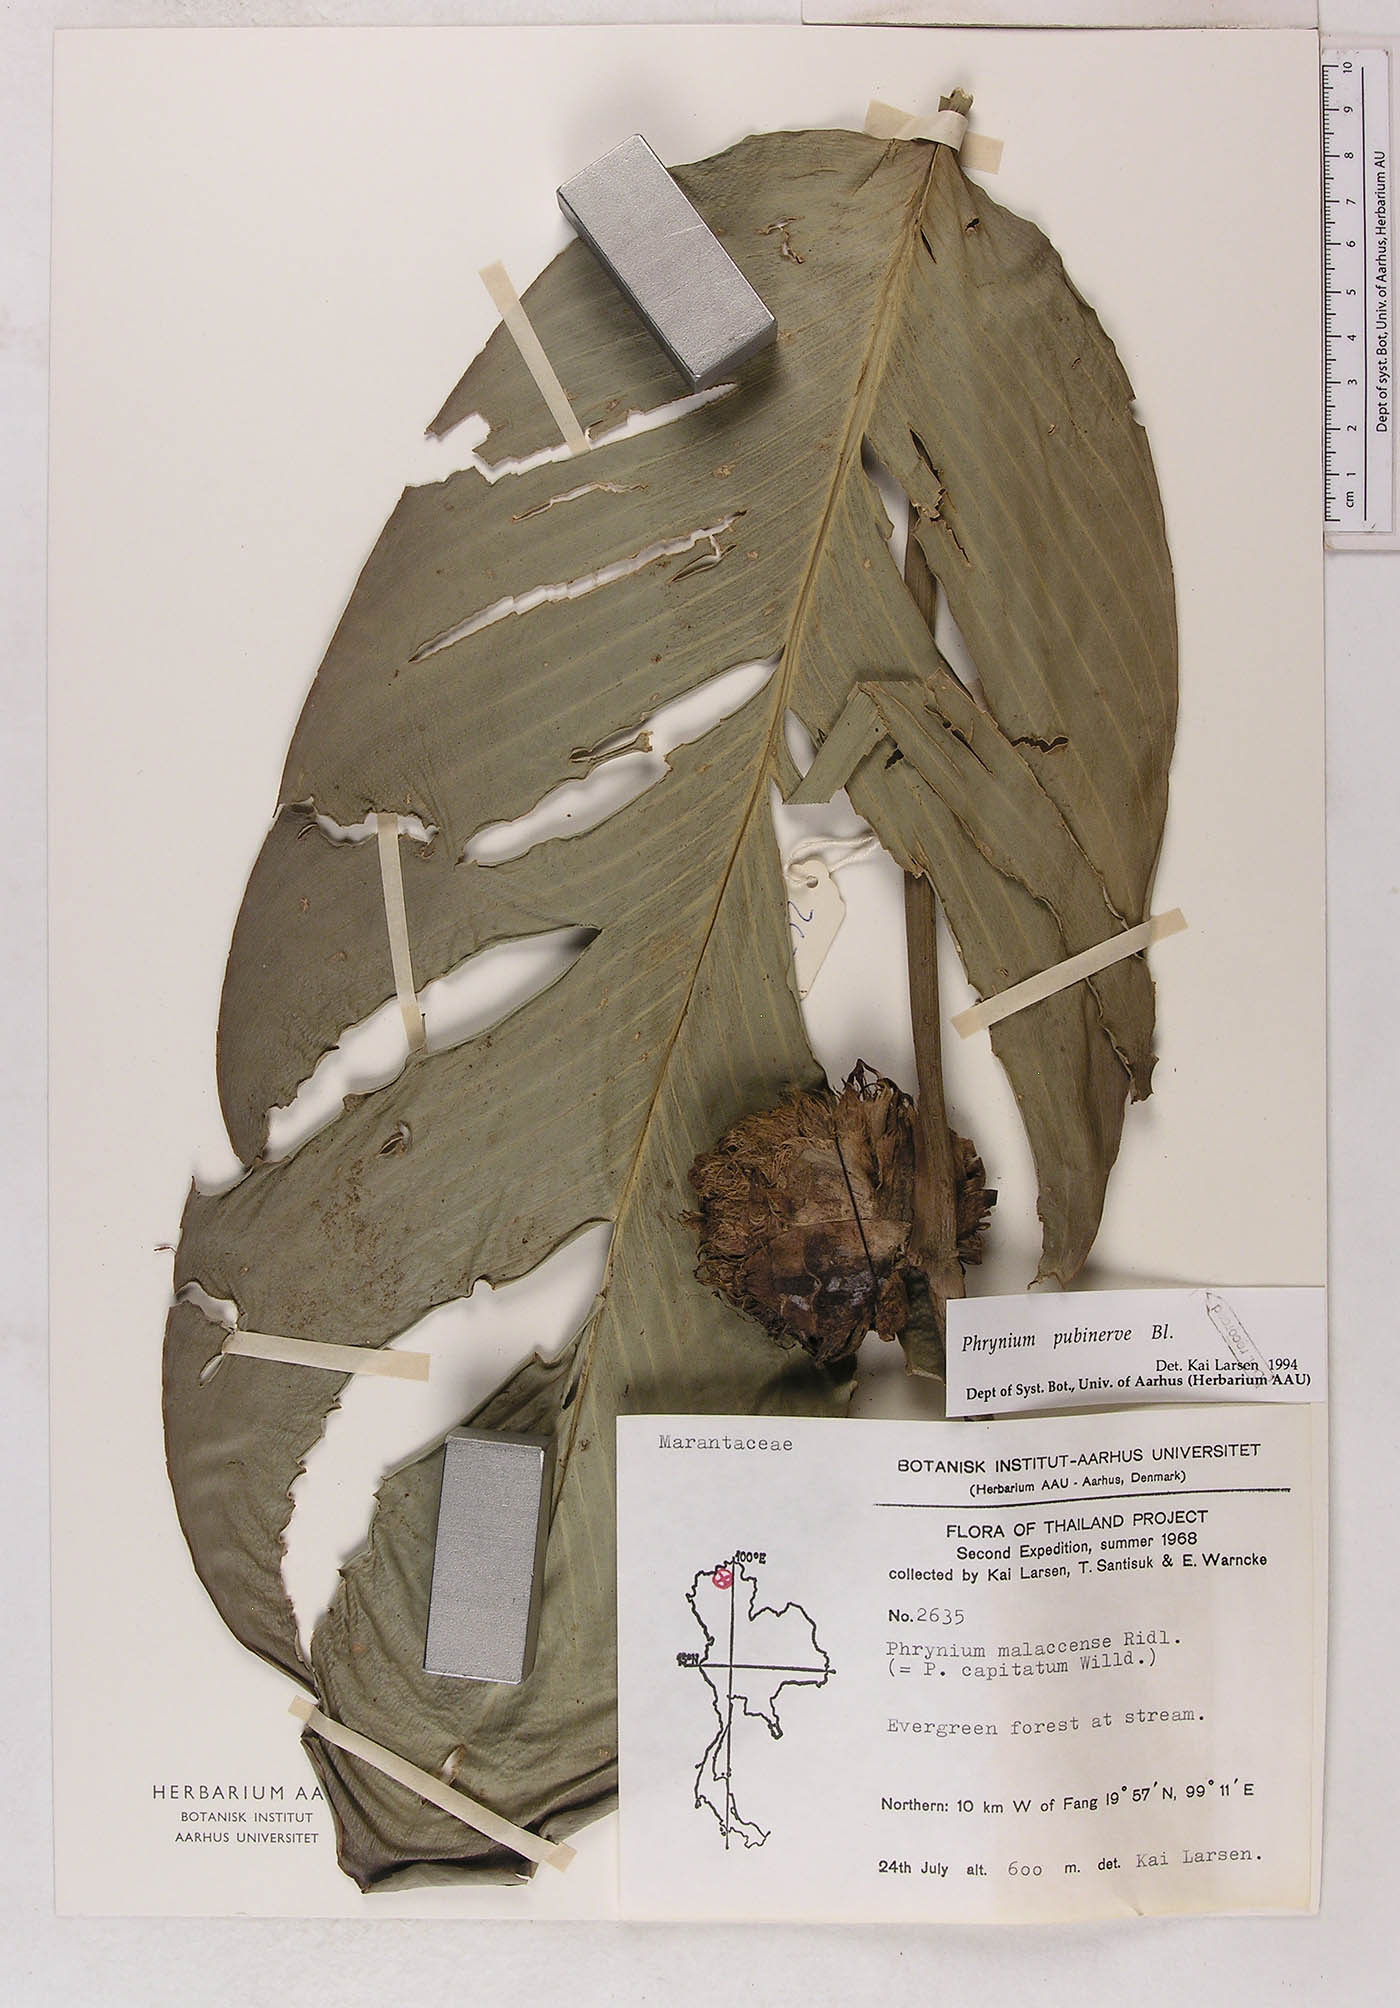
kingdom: Plantae
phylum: Tracheophyta
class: Liliopsida
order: Zingiberales
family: Marantaceae
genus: Phrynium
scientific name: Phrynium pubinerve
